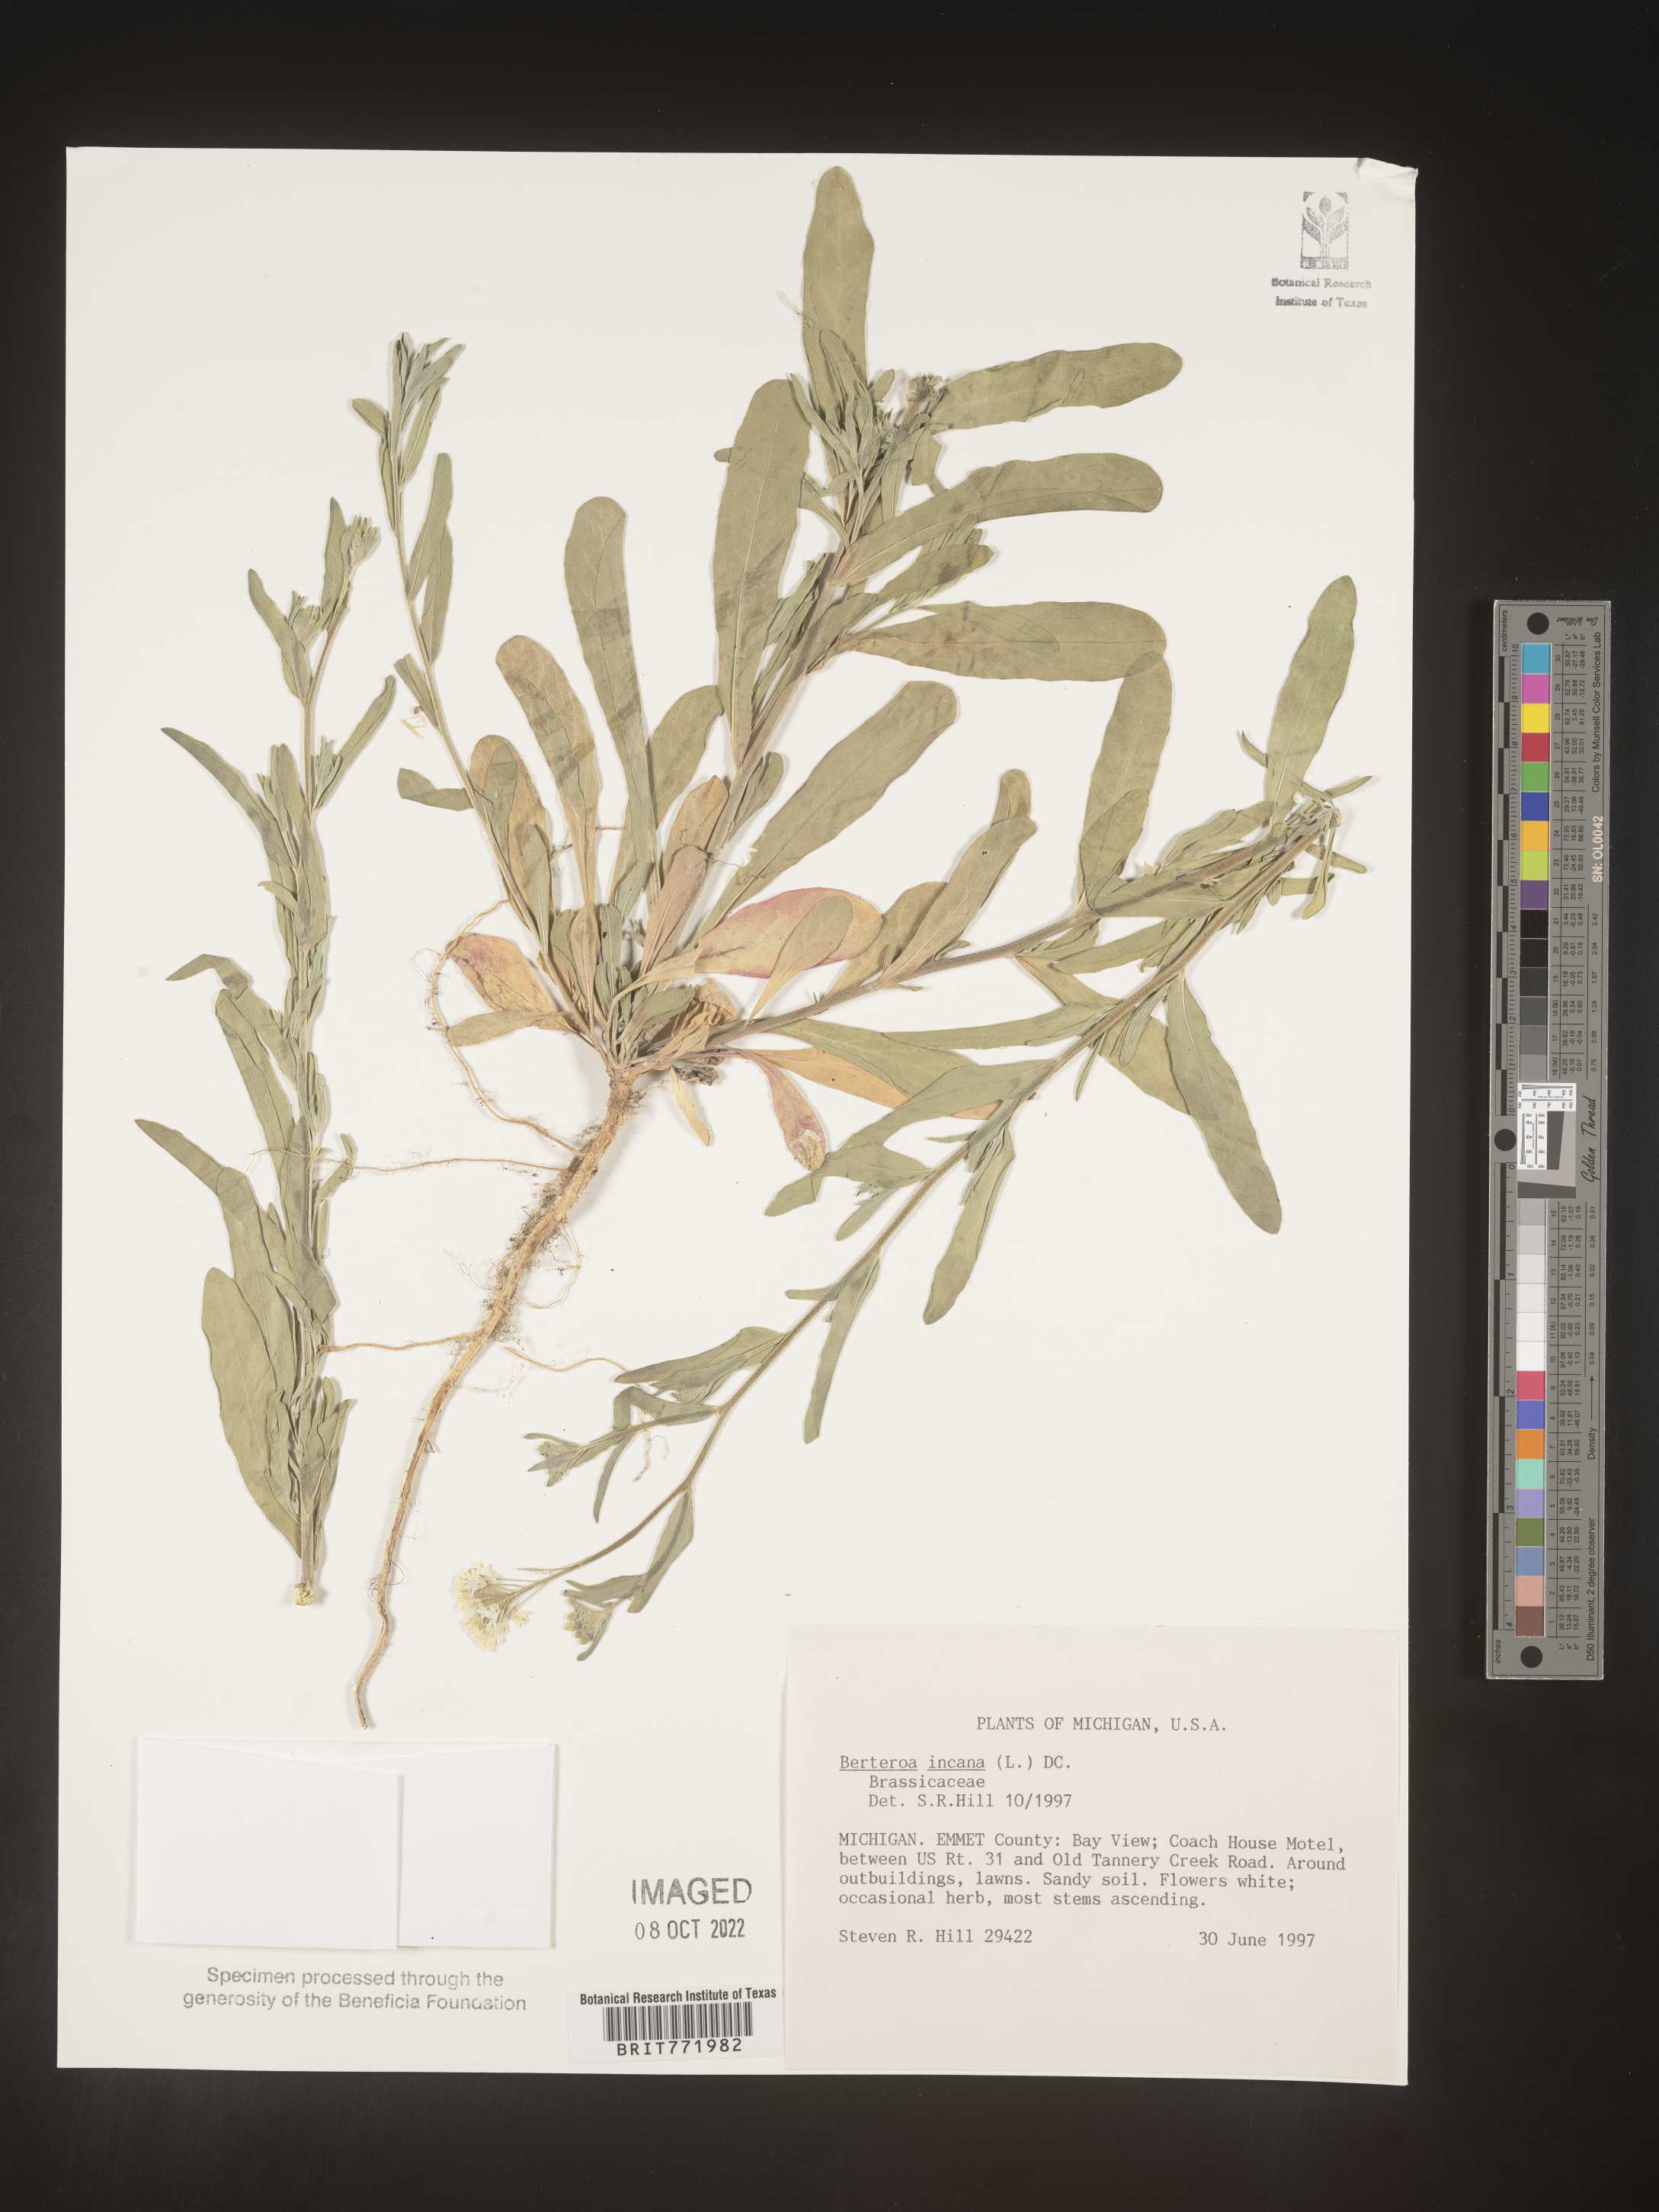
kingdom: Plantae
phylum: Tracheophyta
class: Magnoliopsida
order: Brassicales
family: Brassicaceae
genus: Berteroa
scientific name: Berteroa incana
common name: Hoary alison
